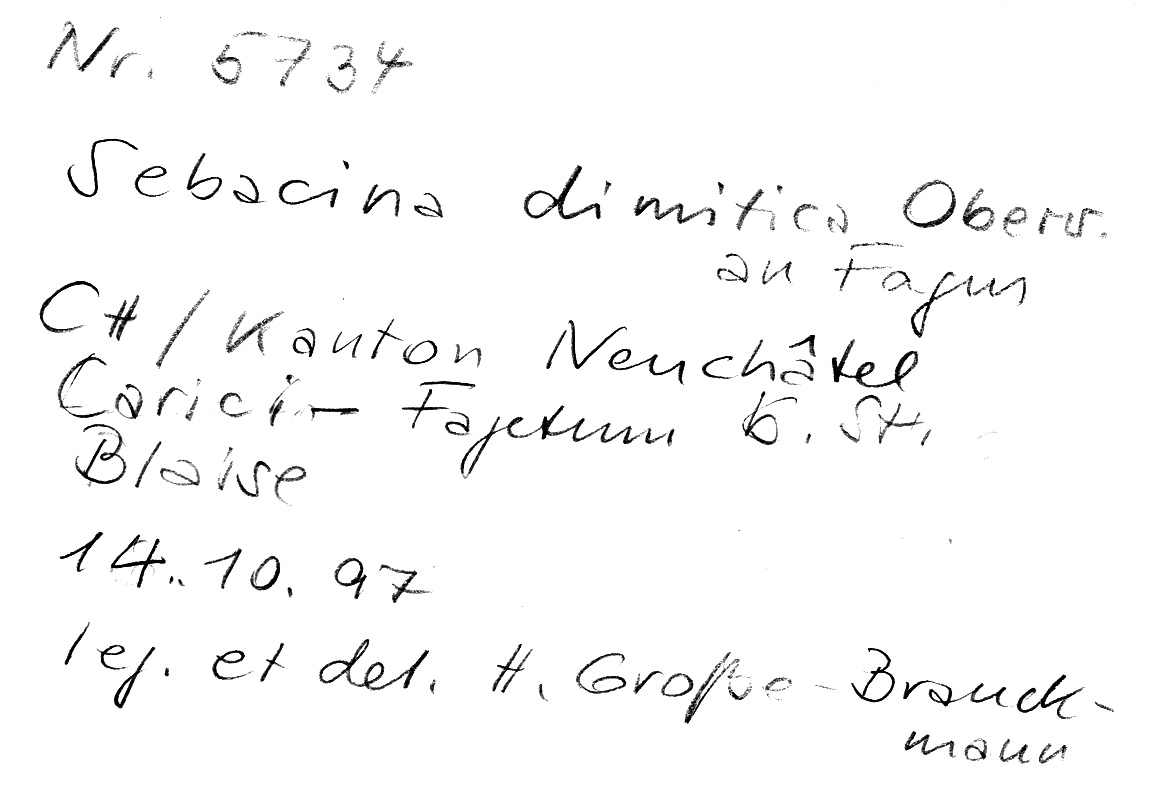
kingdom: Fungi
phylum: Basidiomycota
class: Agaricomycetes
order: Sebacinales
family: Sebacinaceae
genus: Sebacina
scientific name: Sebacina dimitica
